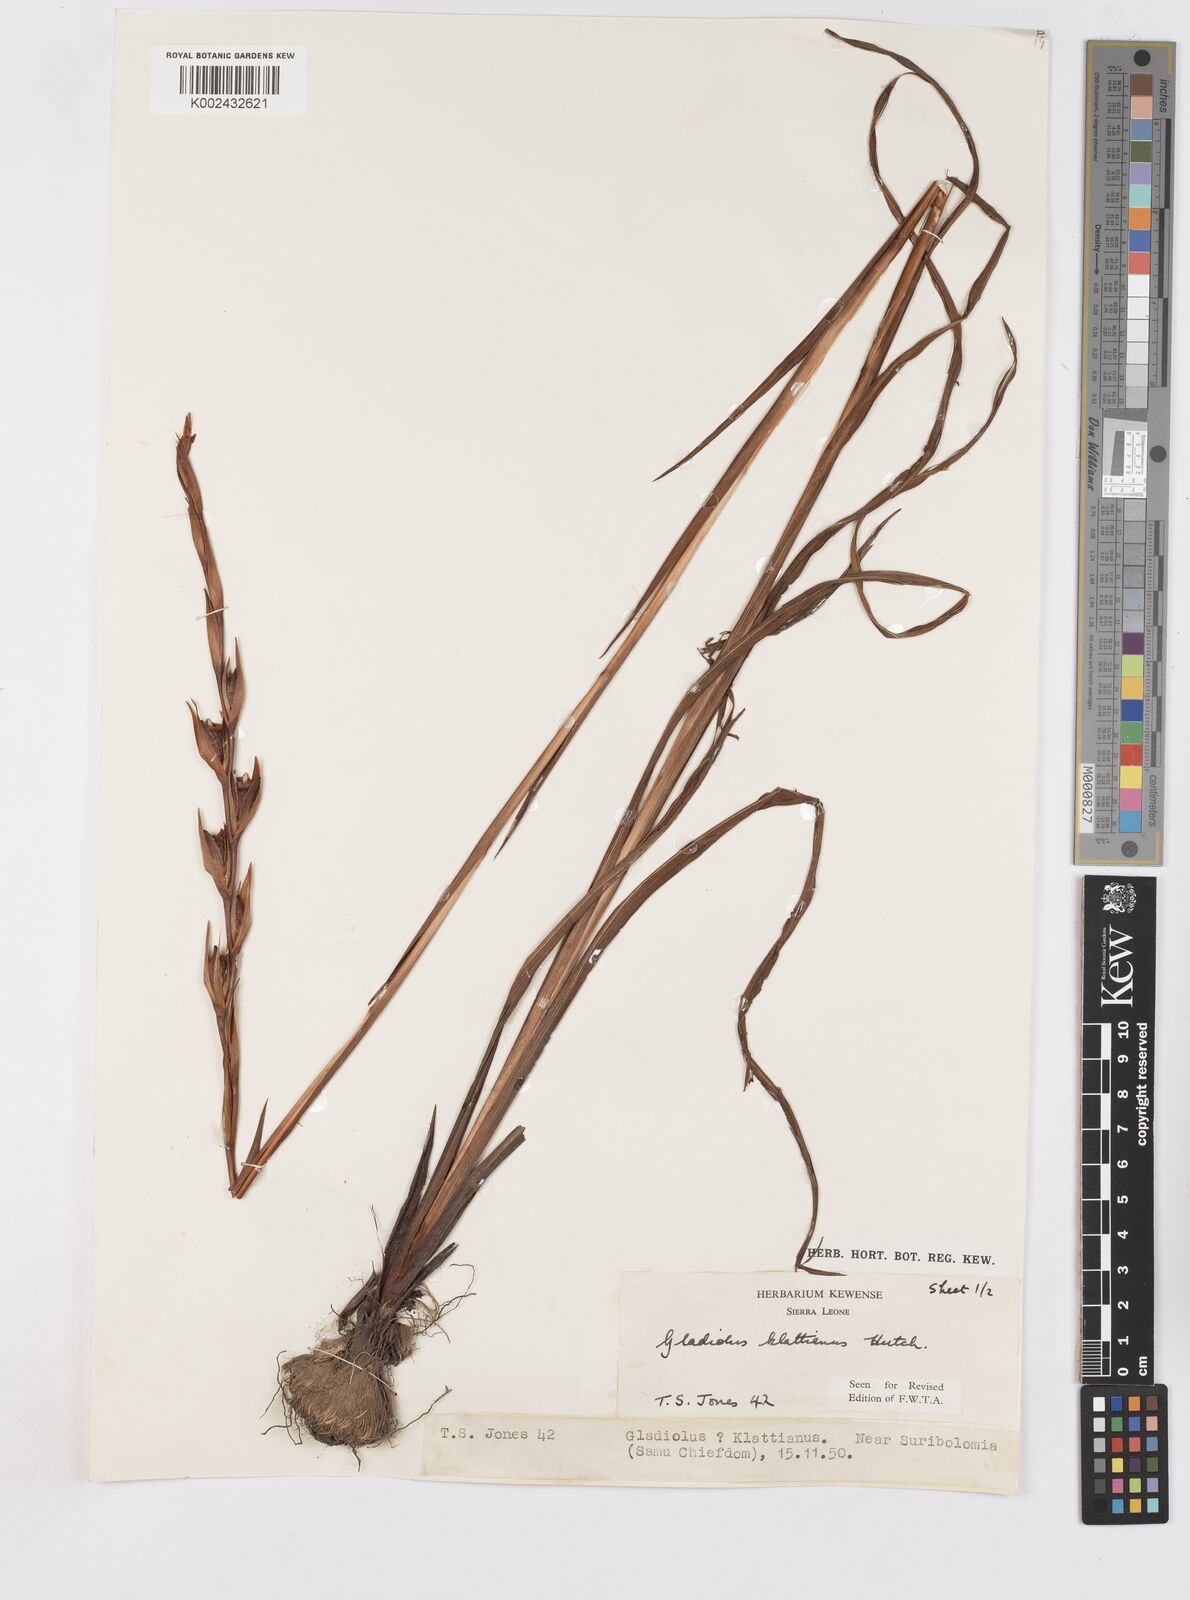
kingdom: Plantae
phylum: Tracheophyta
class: Liliopsida
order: Asparagales
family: Iridaceae
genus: Gladiolus
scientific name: Gladiolus gregarius
